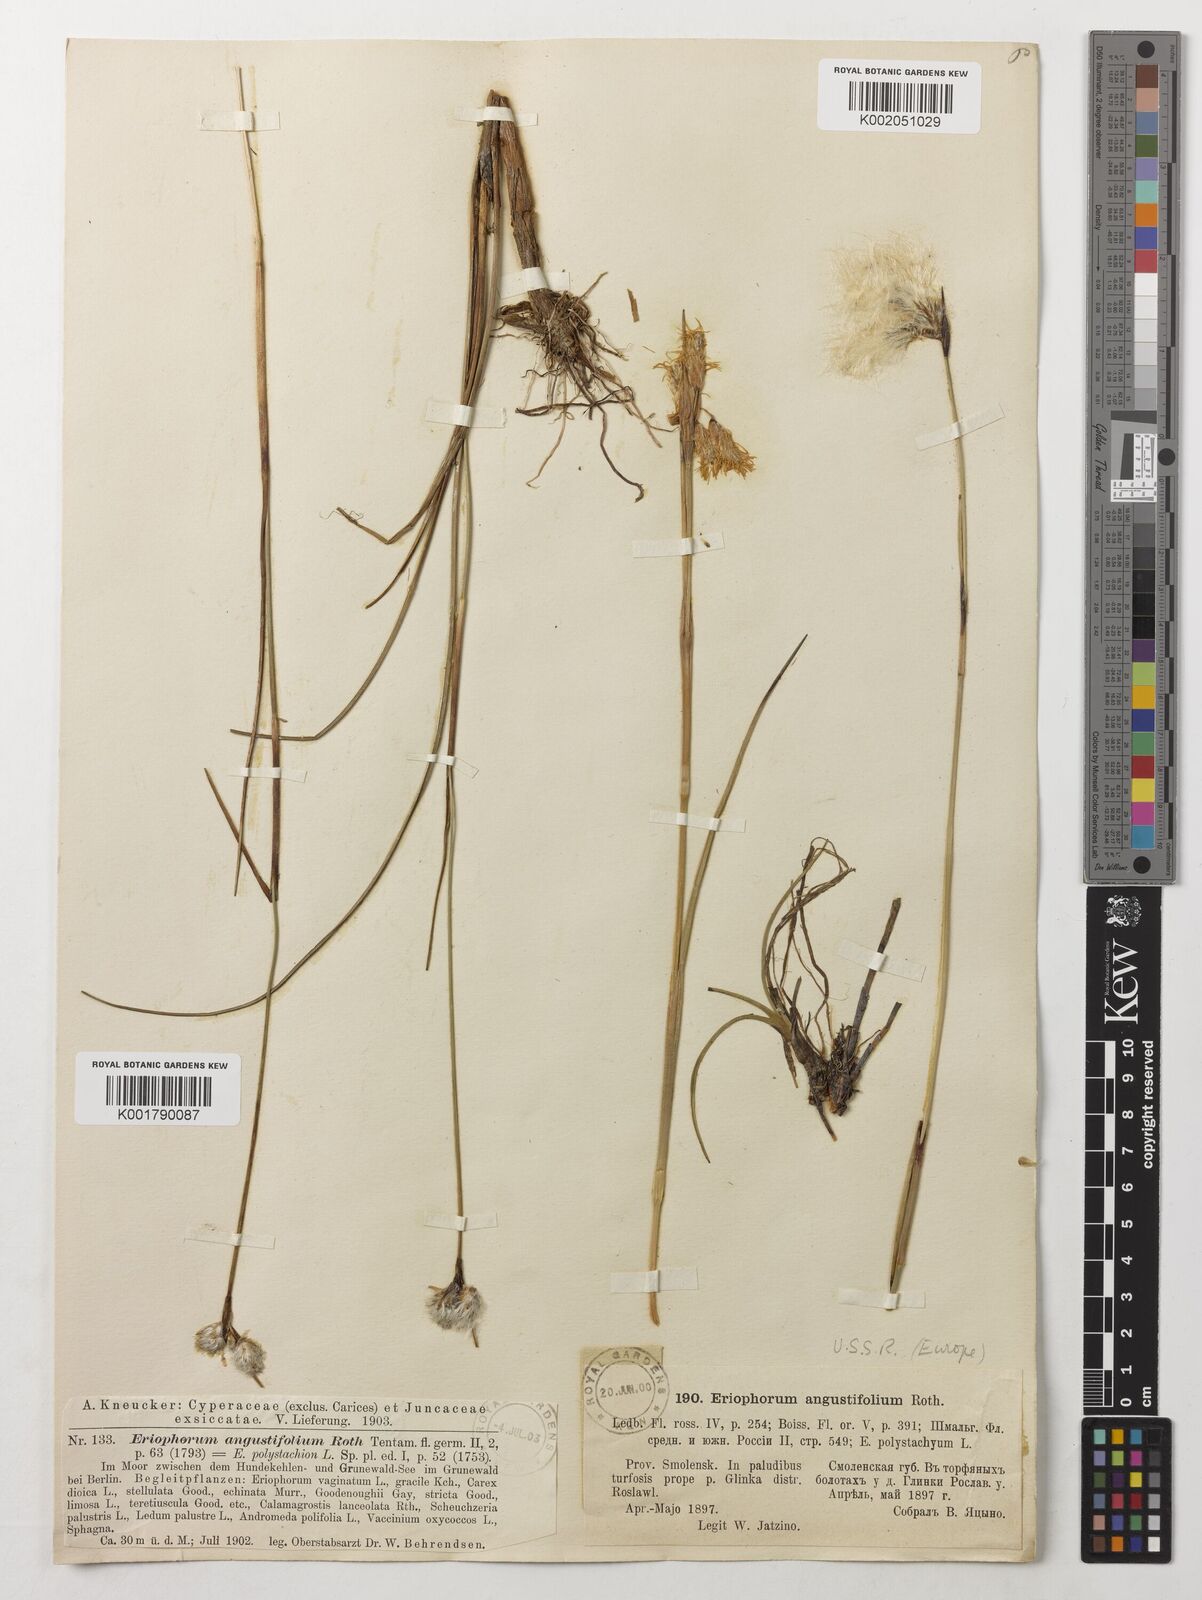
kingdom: Plantae
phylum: Tracheophyta
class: Liliopsida
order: Poales
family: Cyperaceae
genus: Eriophorum
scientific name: Eriophorum angustifolium
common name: Common cottongrass
